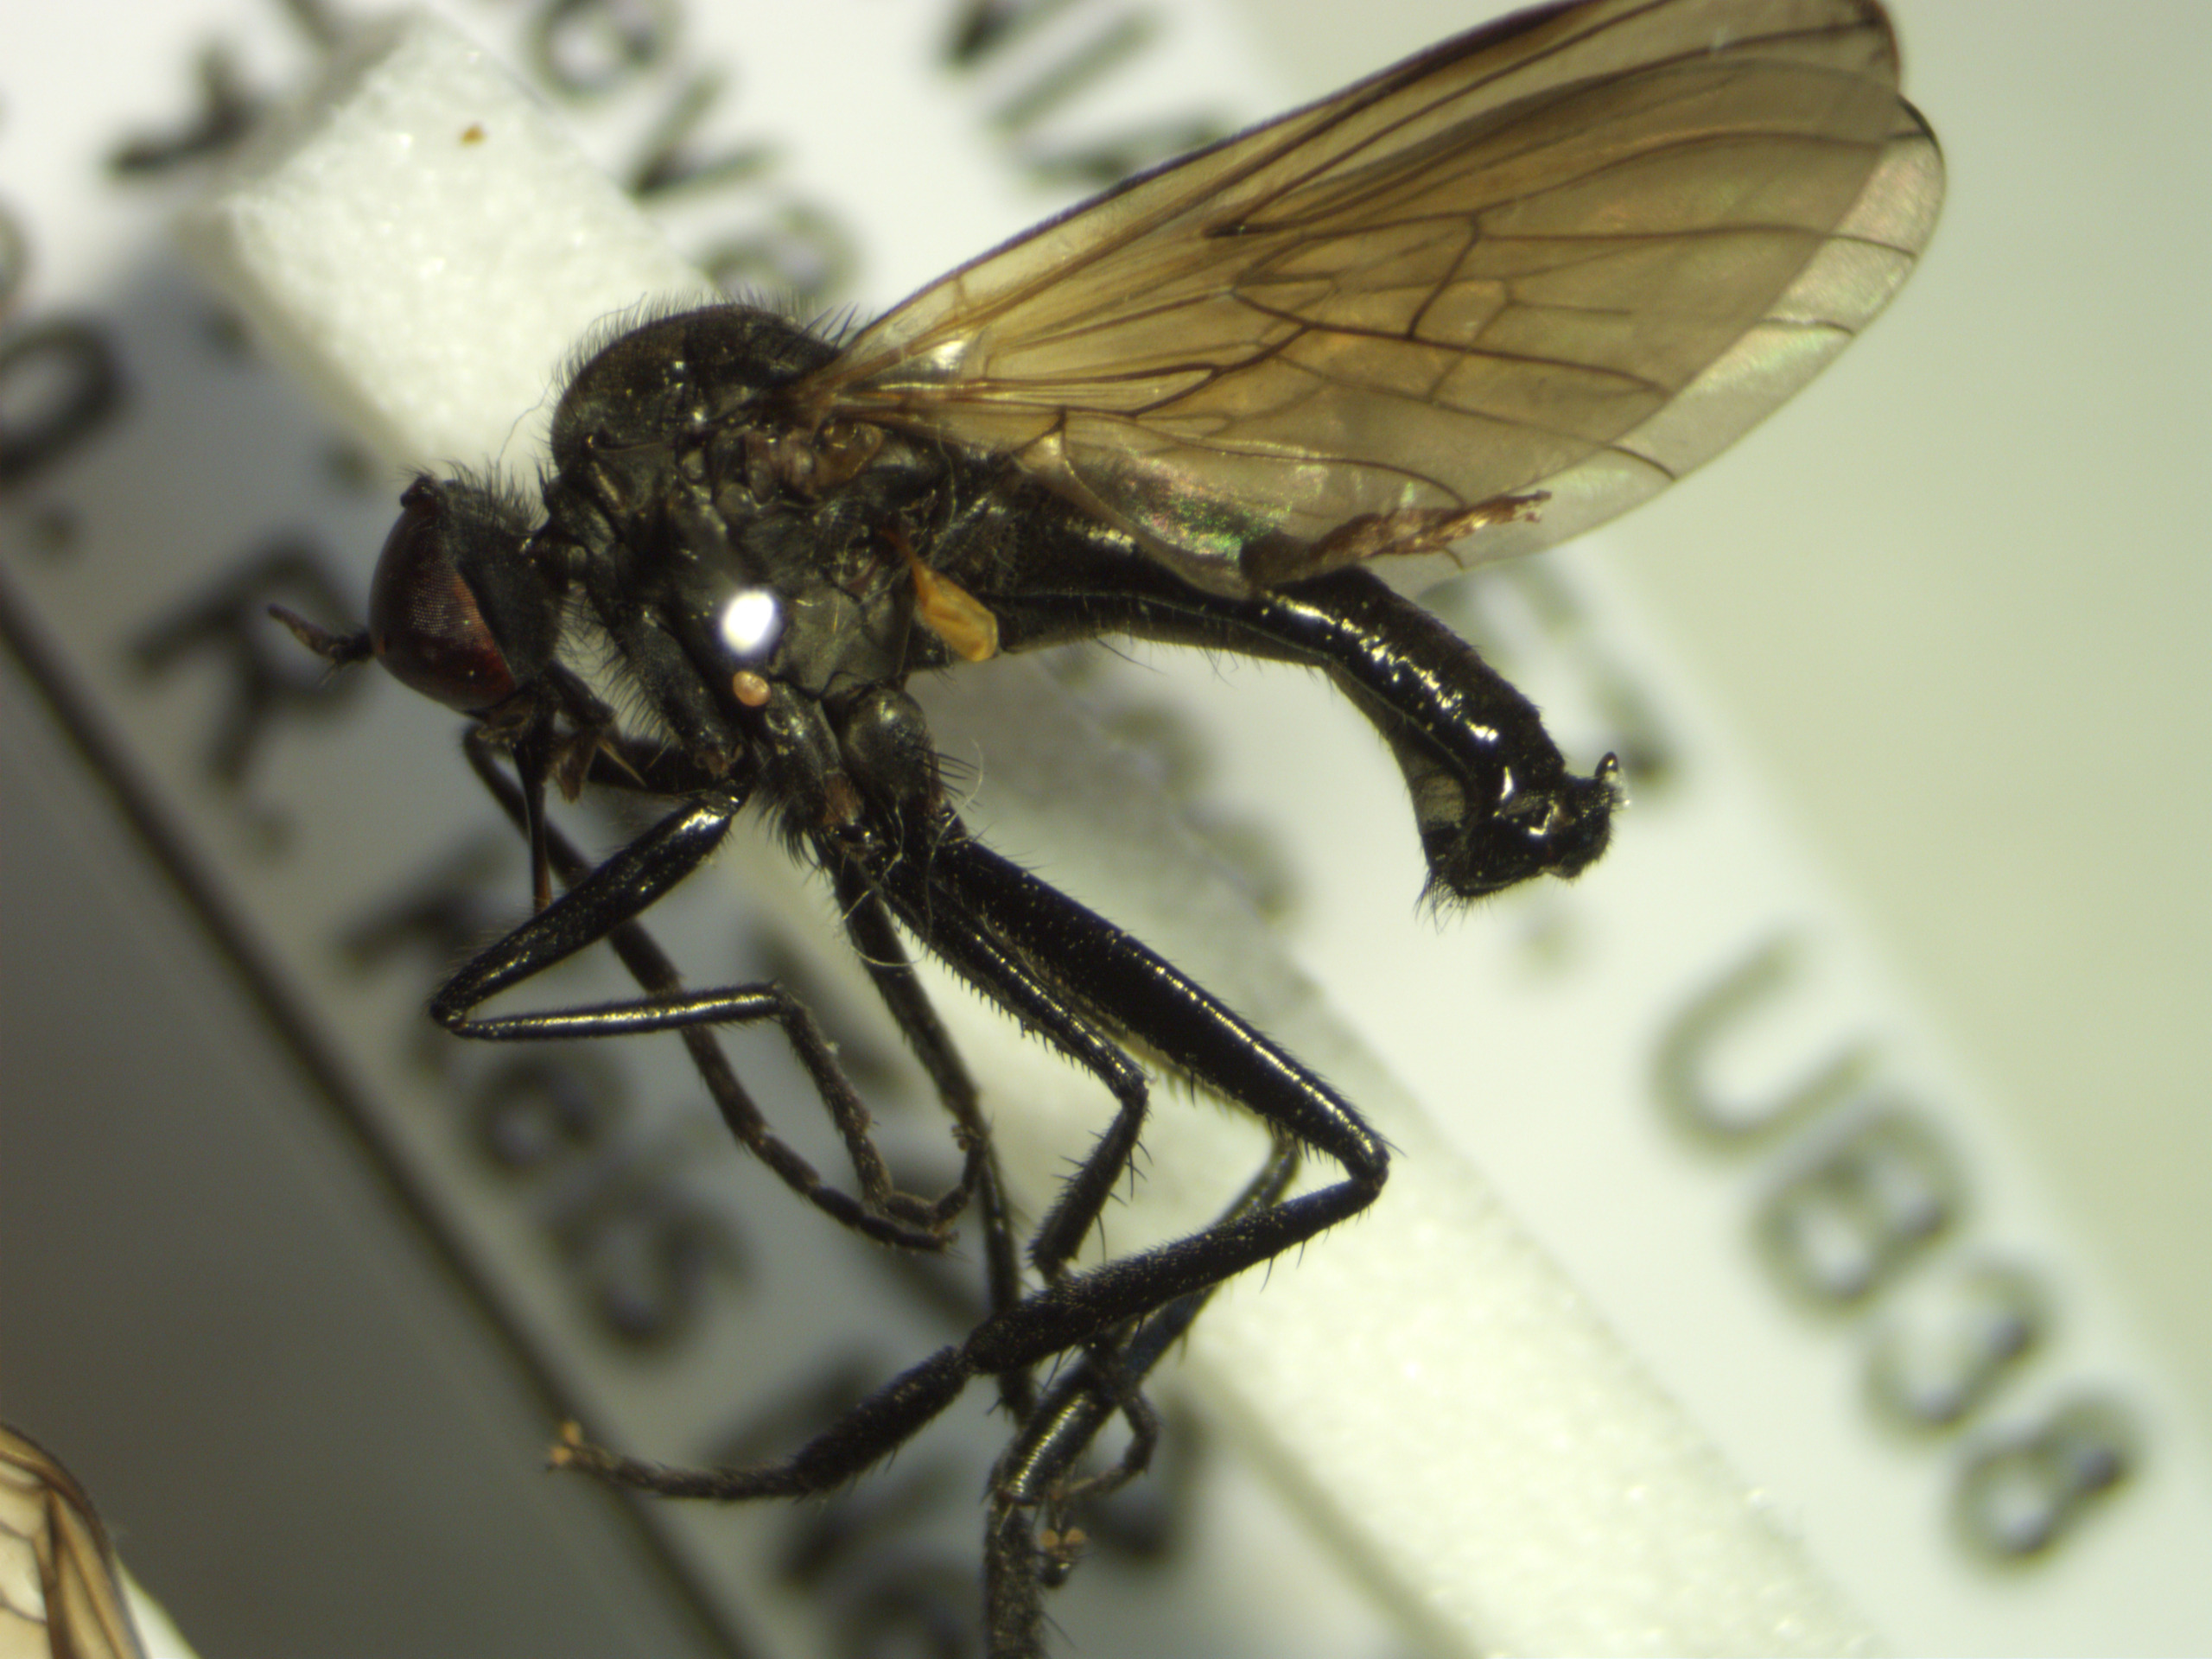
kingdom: Animalia
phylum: Arthropoda
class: Insecta
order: Diptera
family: Empididae
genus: Rhamphomyia
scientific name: Rhamphomyia sulcata
